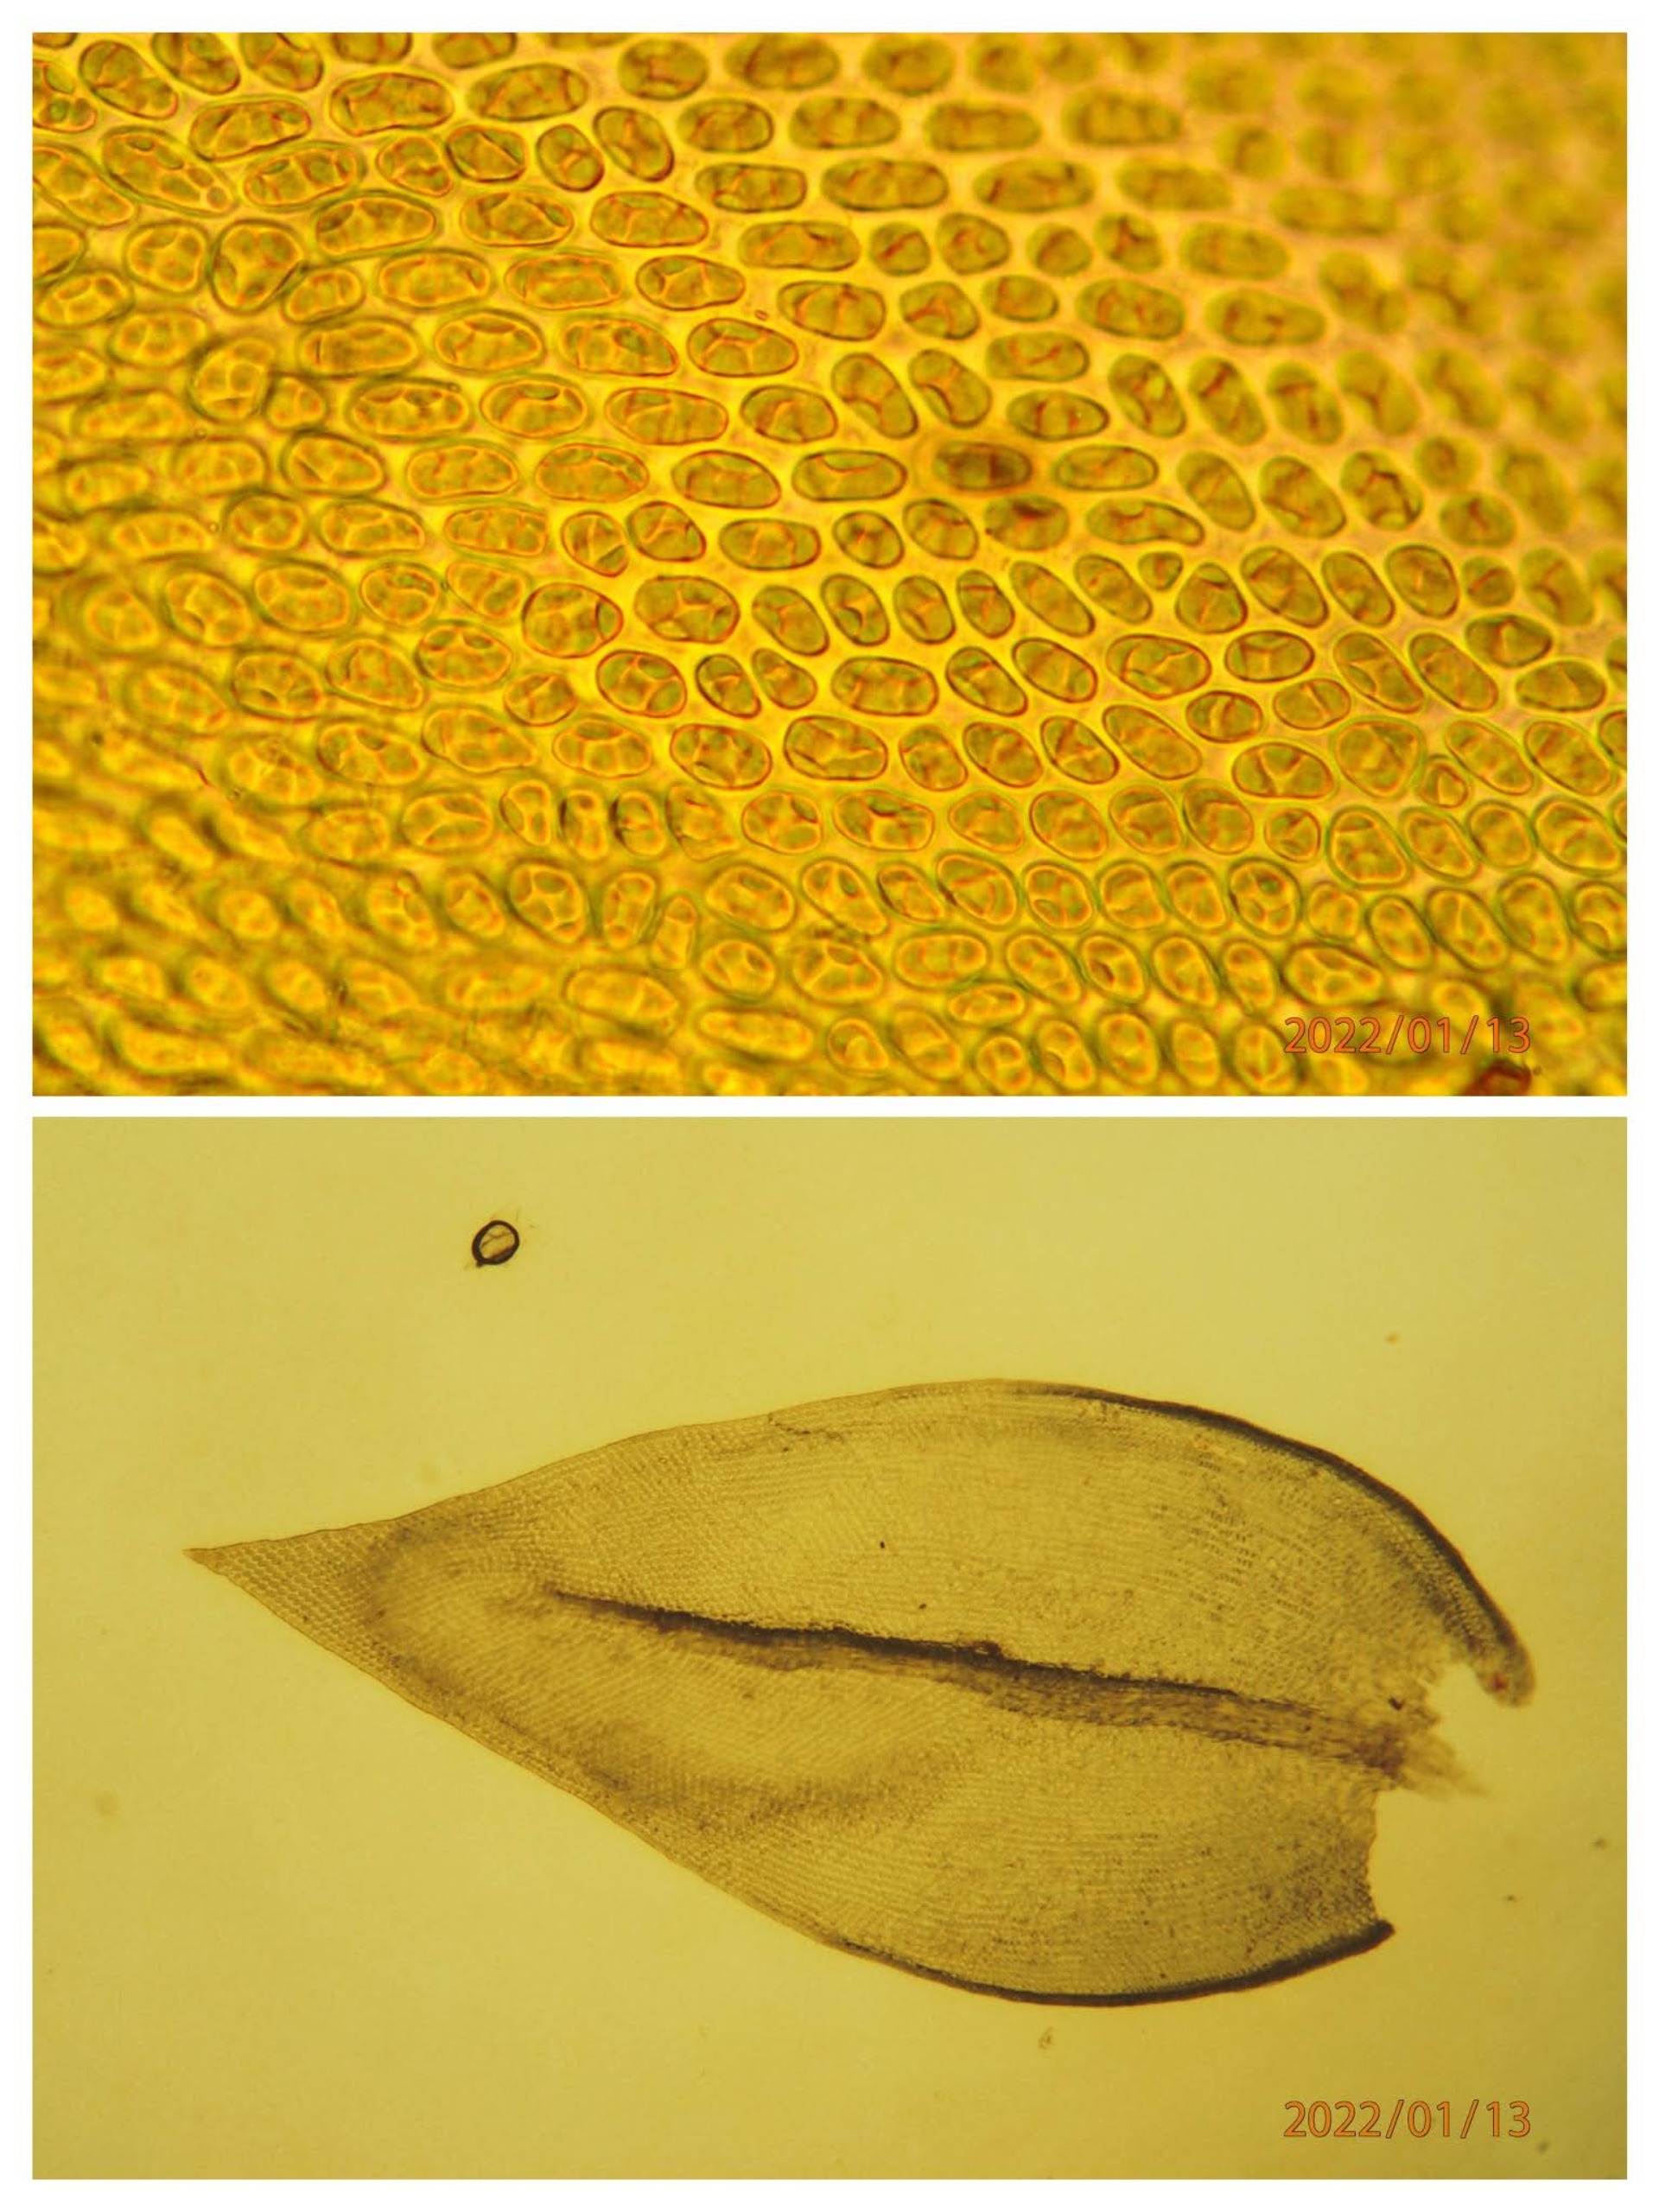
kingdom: Plantae
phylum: Bryophyta
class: Bryopsida
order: Hypnales
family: Cryphaeaceae
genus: Cryphaea
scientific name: Cryphaea heteromalla
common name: Bark-dækmos
